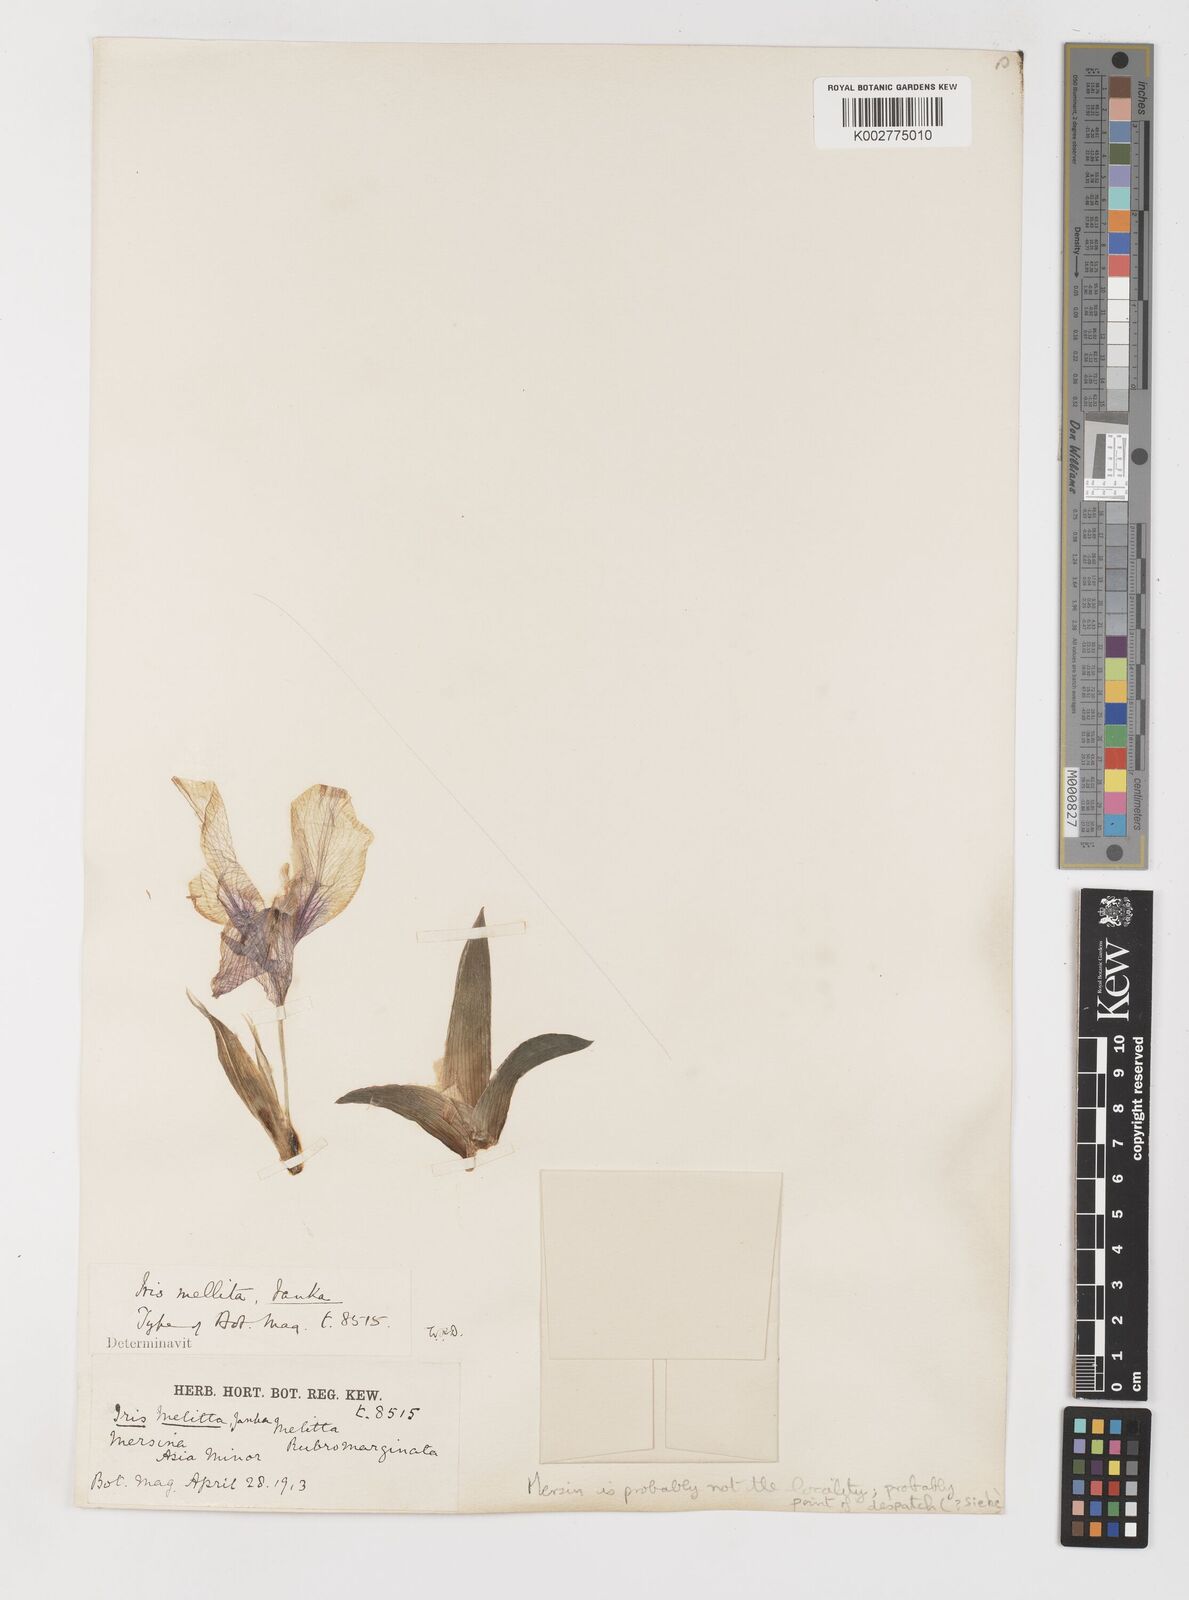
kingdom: Plantae
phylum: Tracheophyta
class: Liliopsida
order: Asparagales
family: Iridaceae
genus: Iris
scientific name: Iris suaveolens
